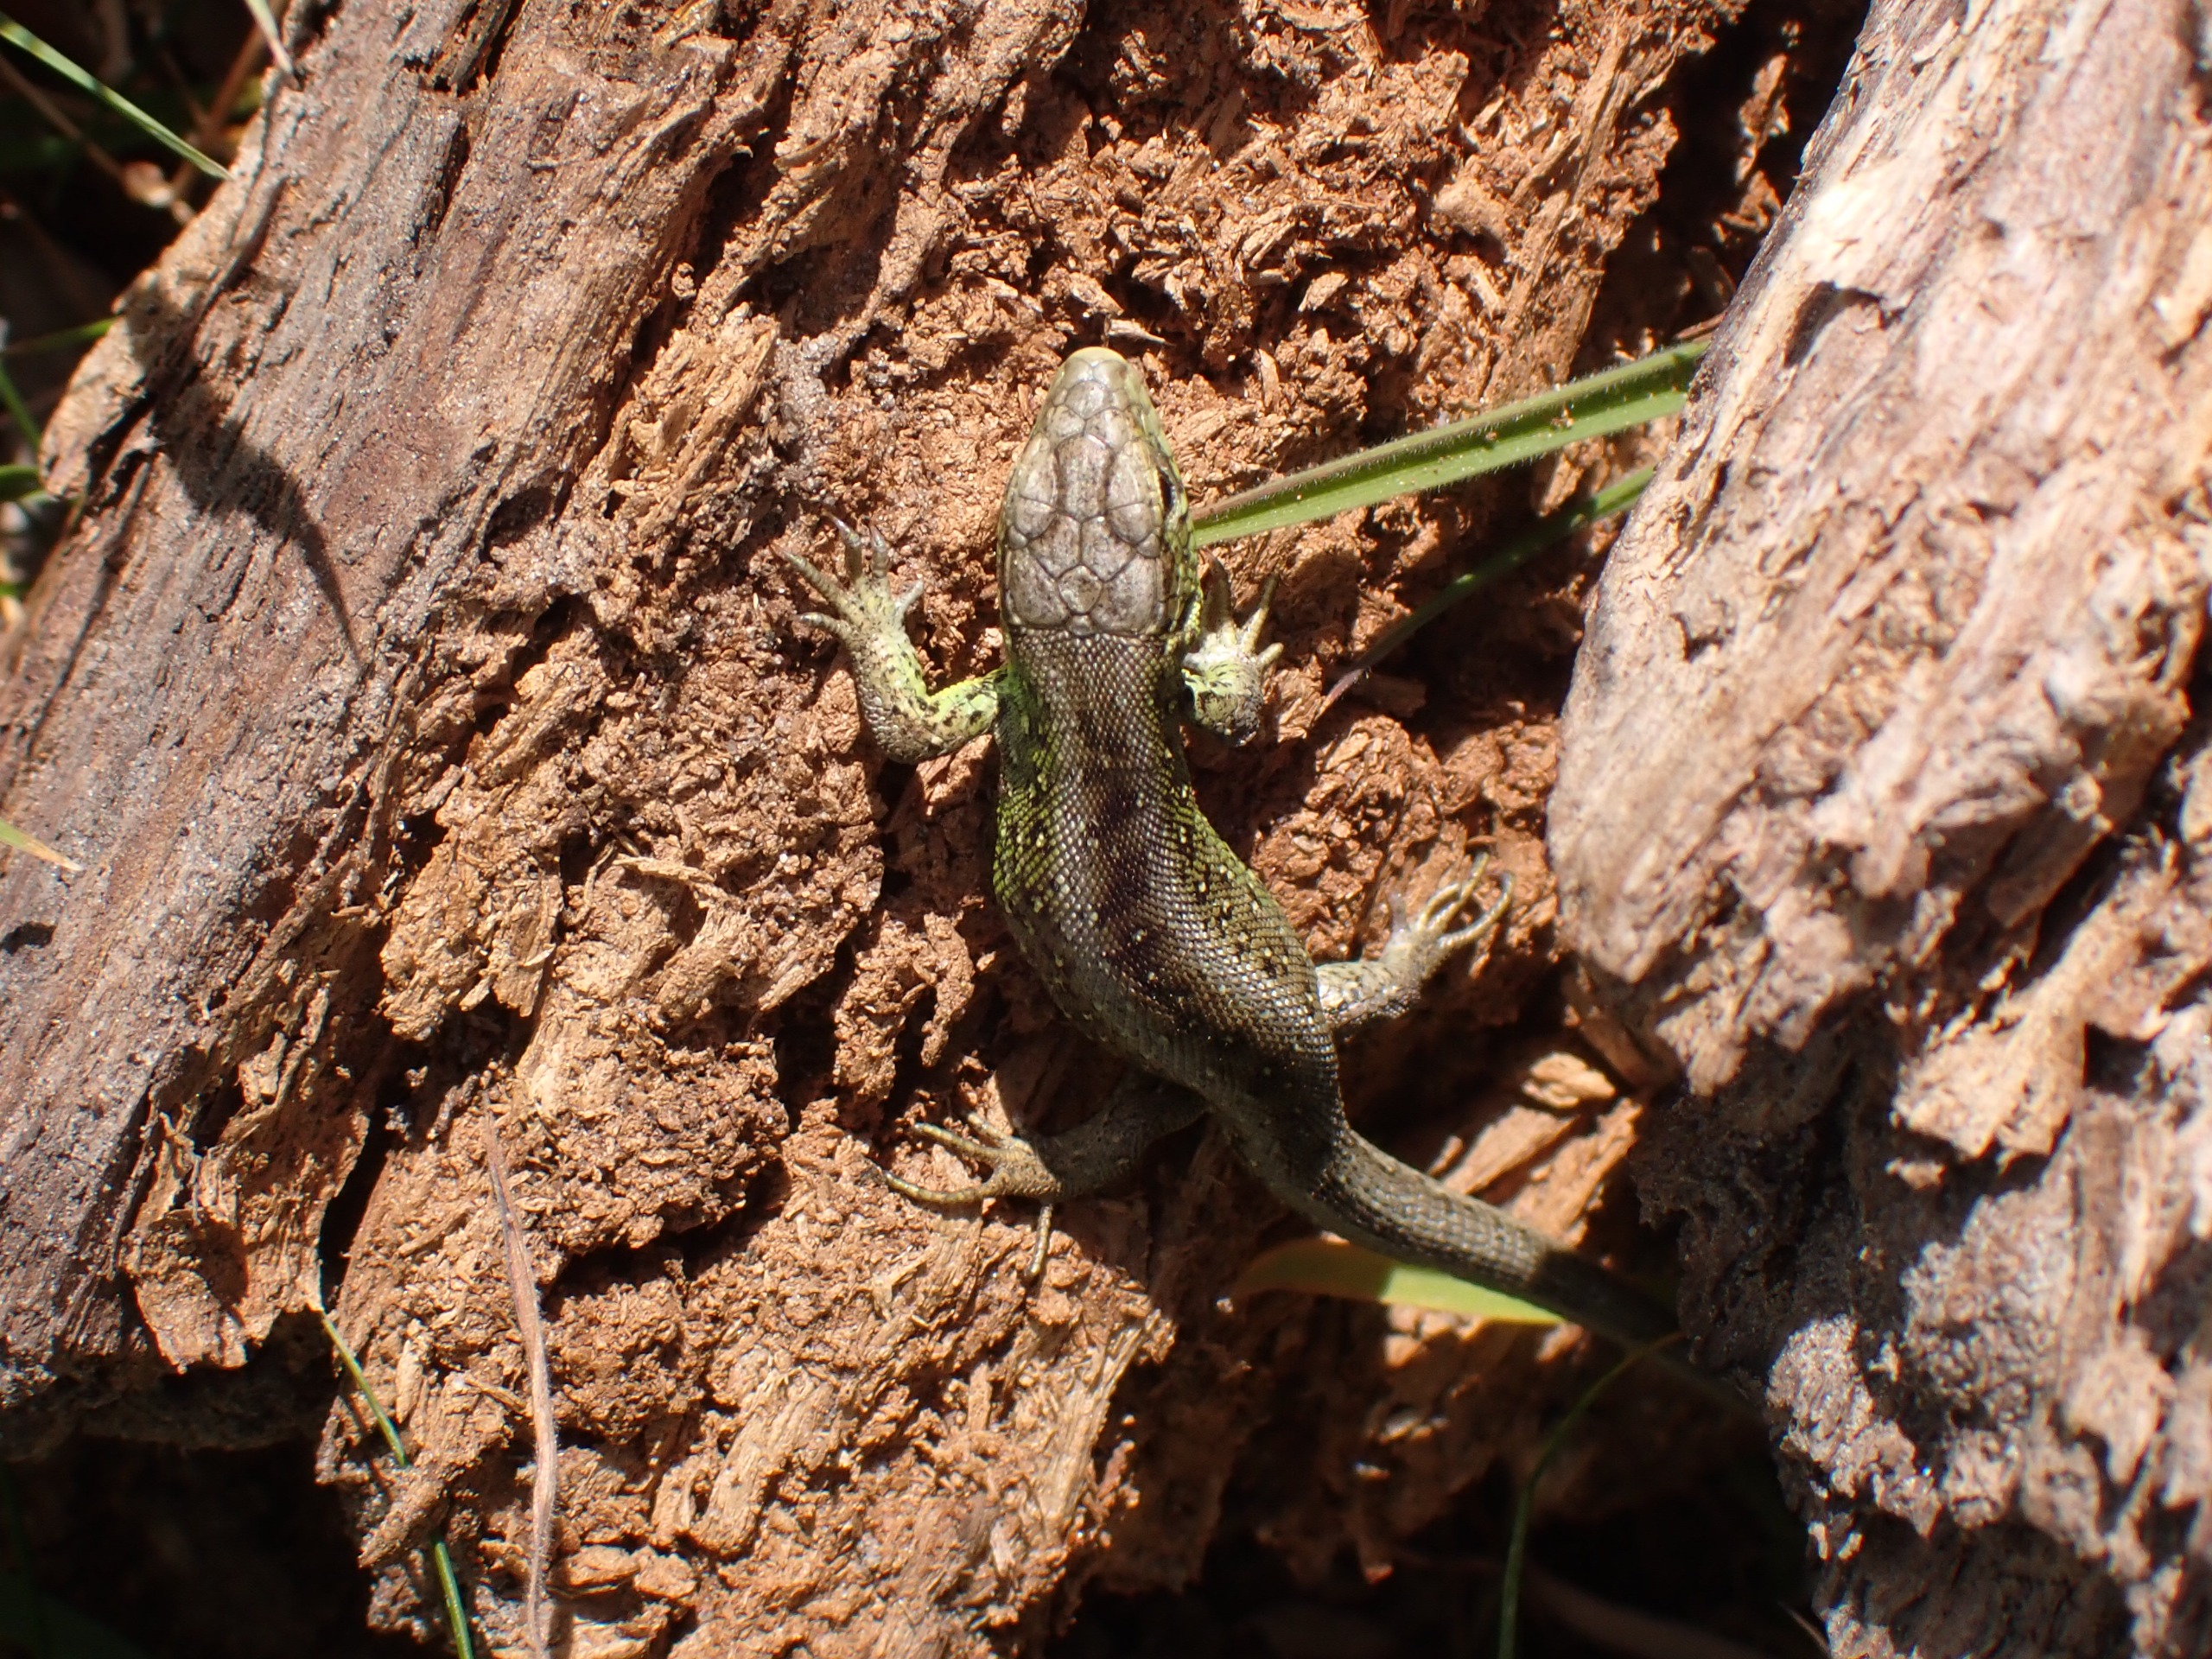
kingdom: Animalia
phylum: Chordata
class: Squamata
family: Lacertidae
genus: Lacerta
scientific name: Lacerta agilis
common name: Markfirben
